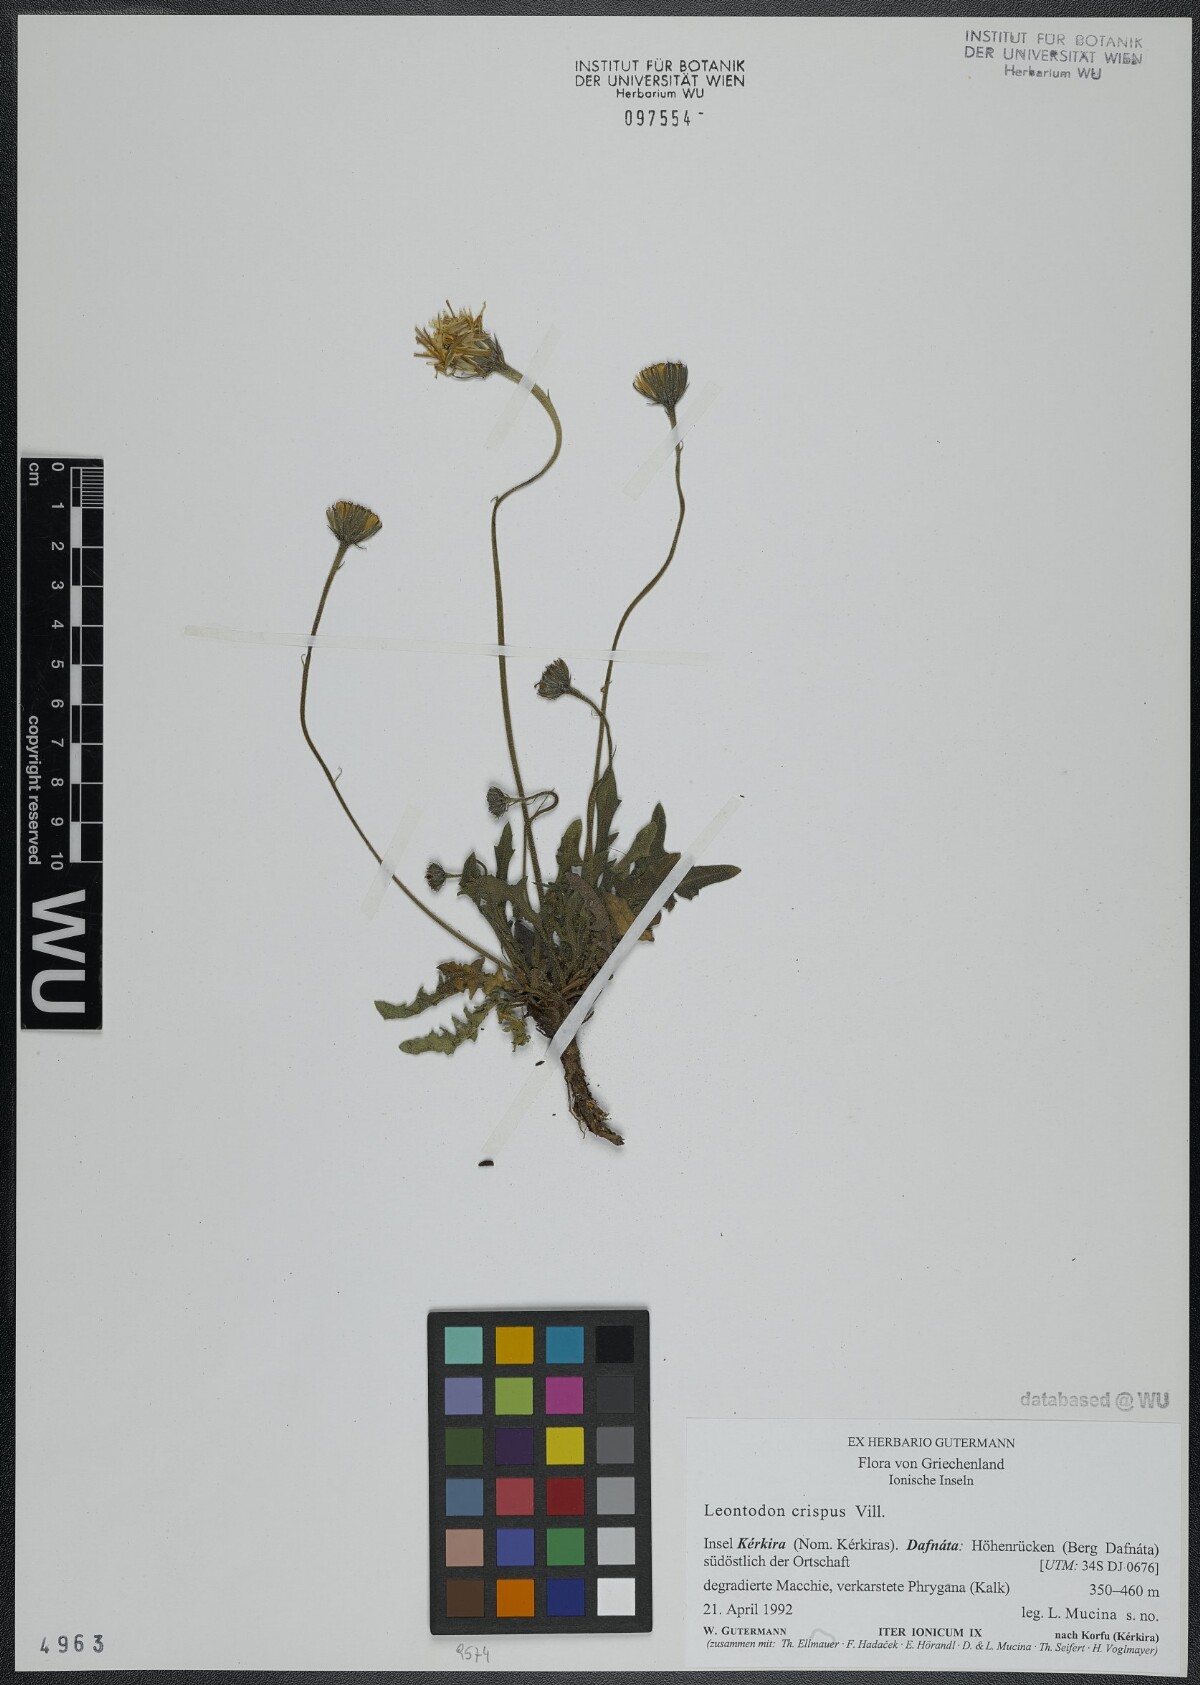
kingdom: Plantae
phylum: Tracheophyta
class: Magnoliopsida
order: Asterales
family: Asteraceae
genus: Leontodon
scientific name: Leontodon crispus
